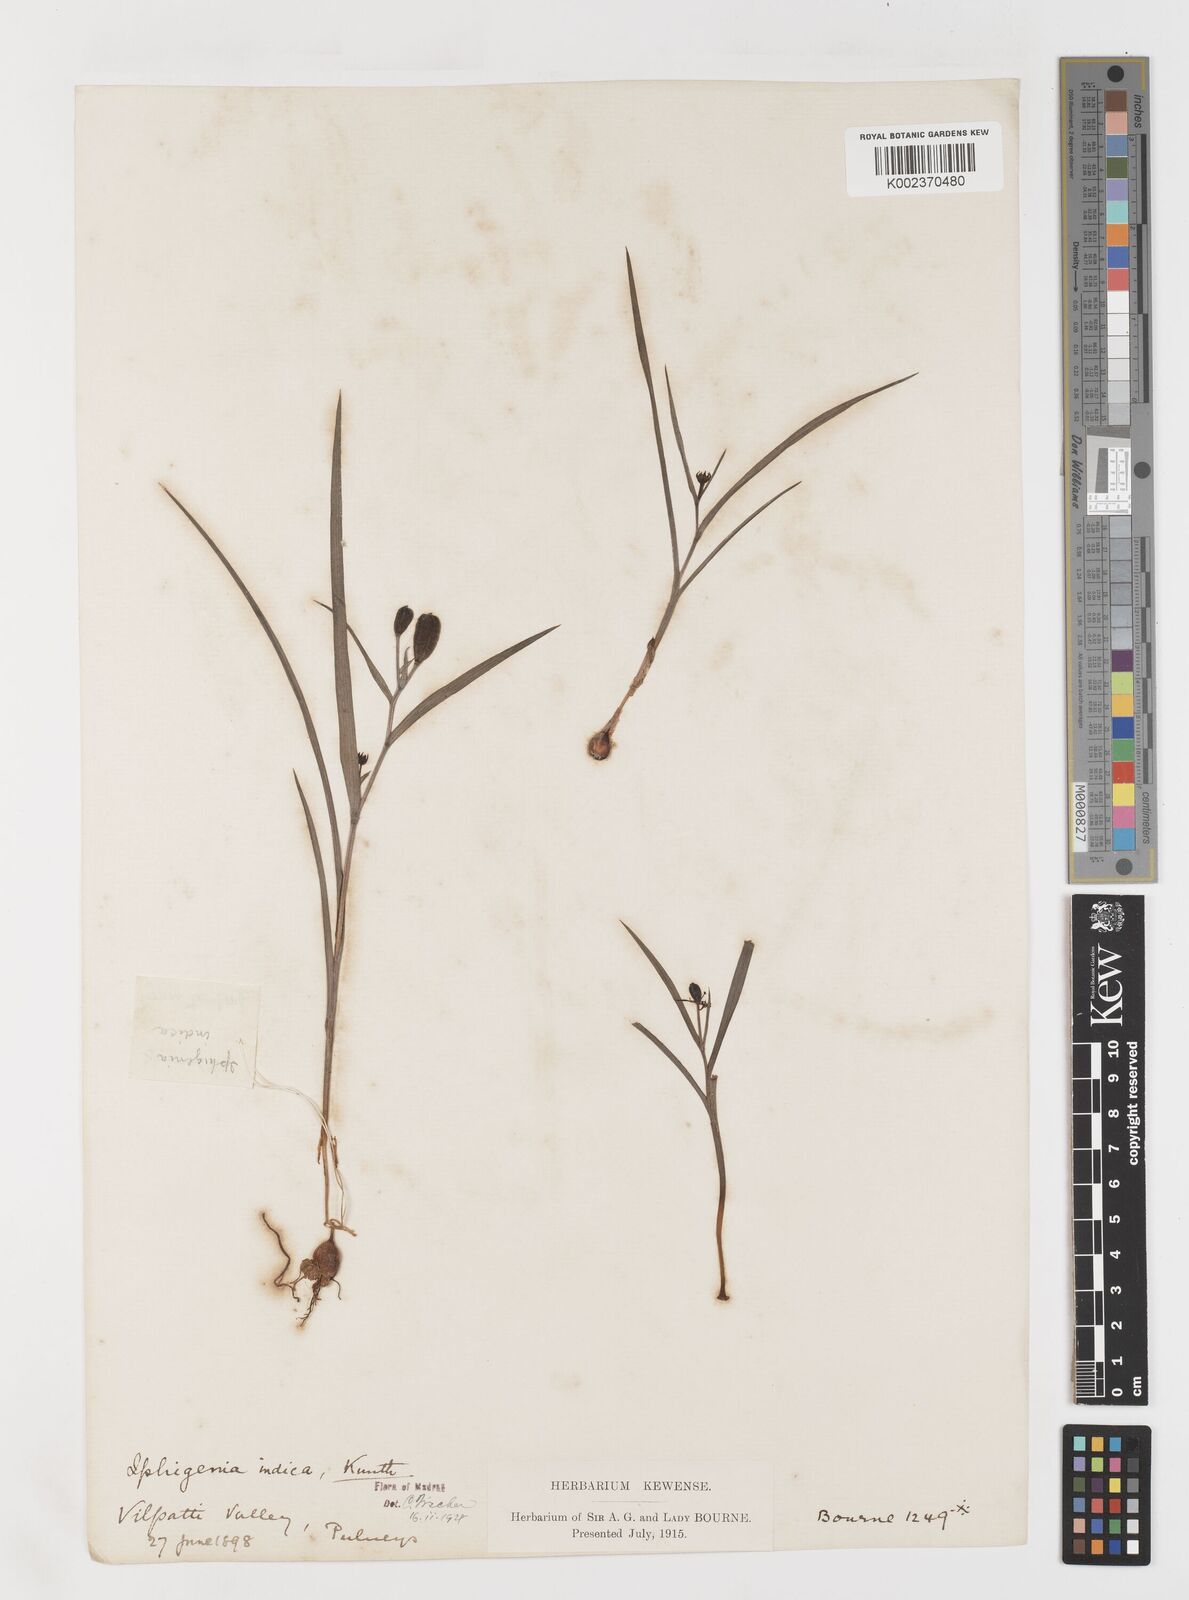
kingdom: Plantae
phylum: Tracheophyta
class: Liliopsida
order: Liliales
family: Colchicaceae
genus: Iphigenia
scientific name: Iphigenia indica
